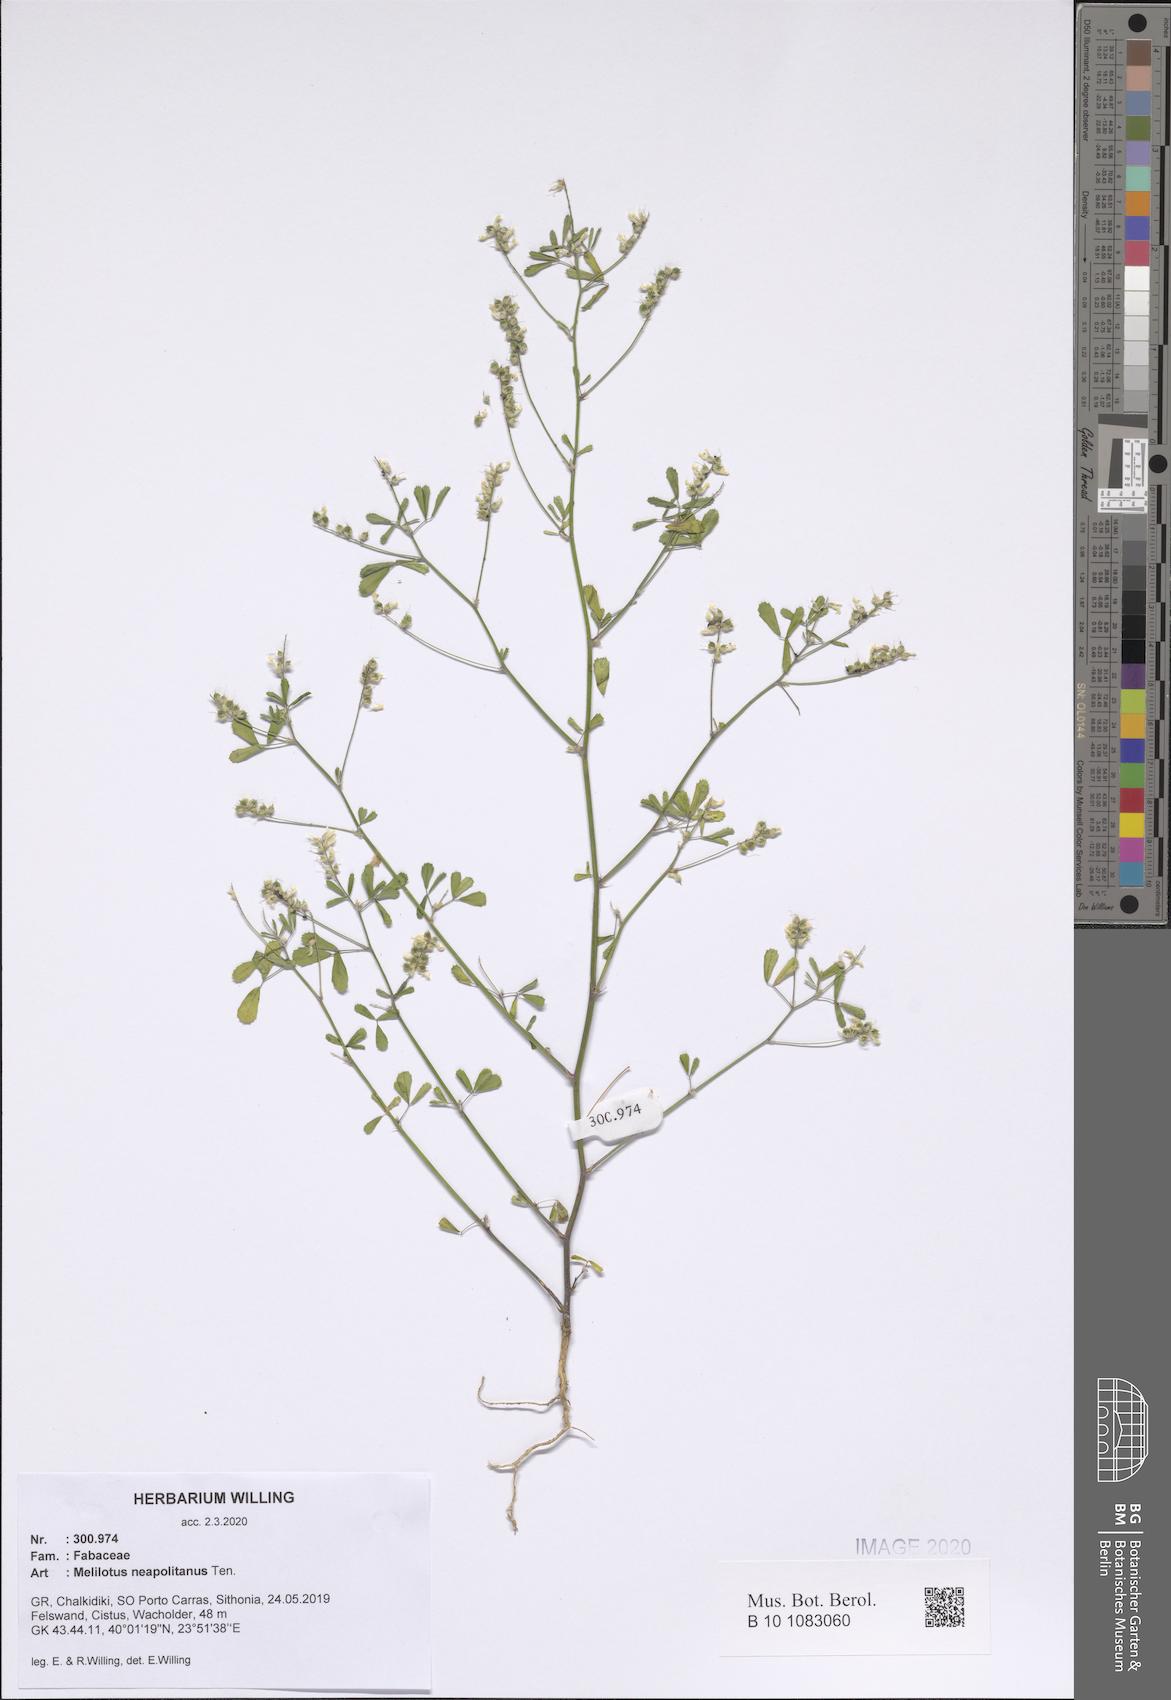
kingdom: Plantae
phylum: Tracheophyta
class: Magnoliopsida
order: Fabales
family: Fabaceae
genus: Melilotus
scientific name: Melilotus neapolitanus
